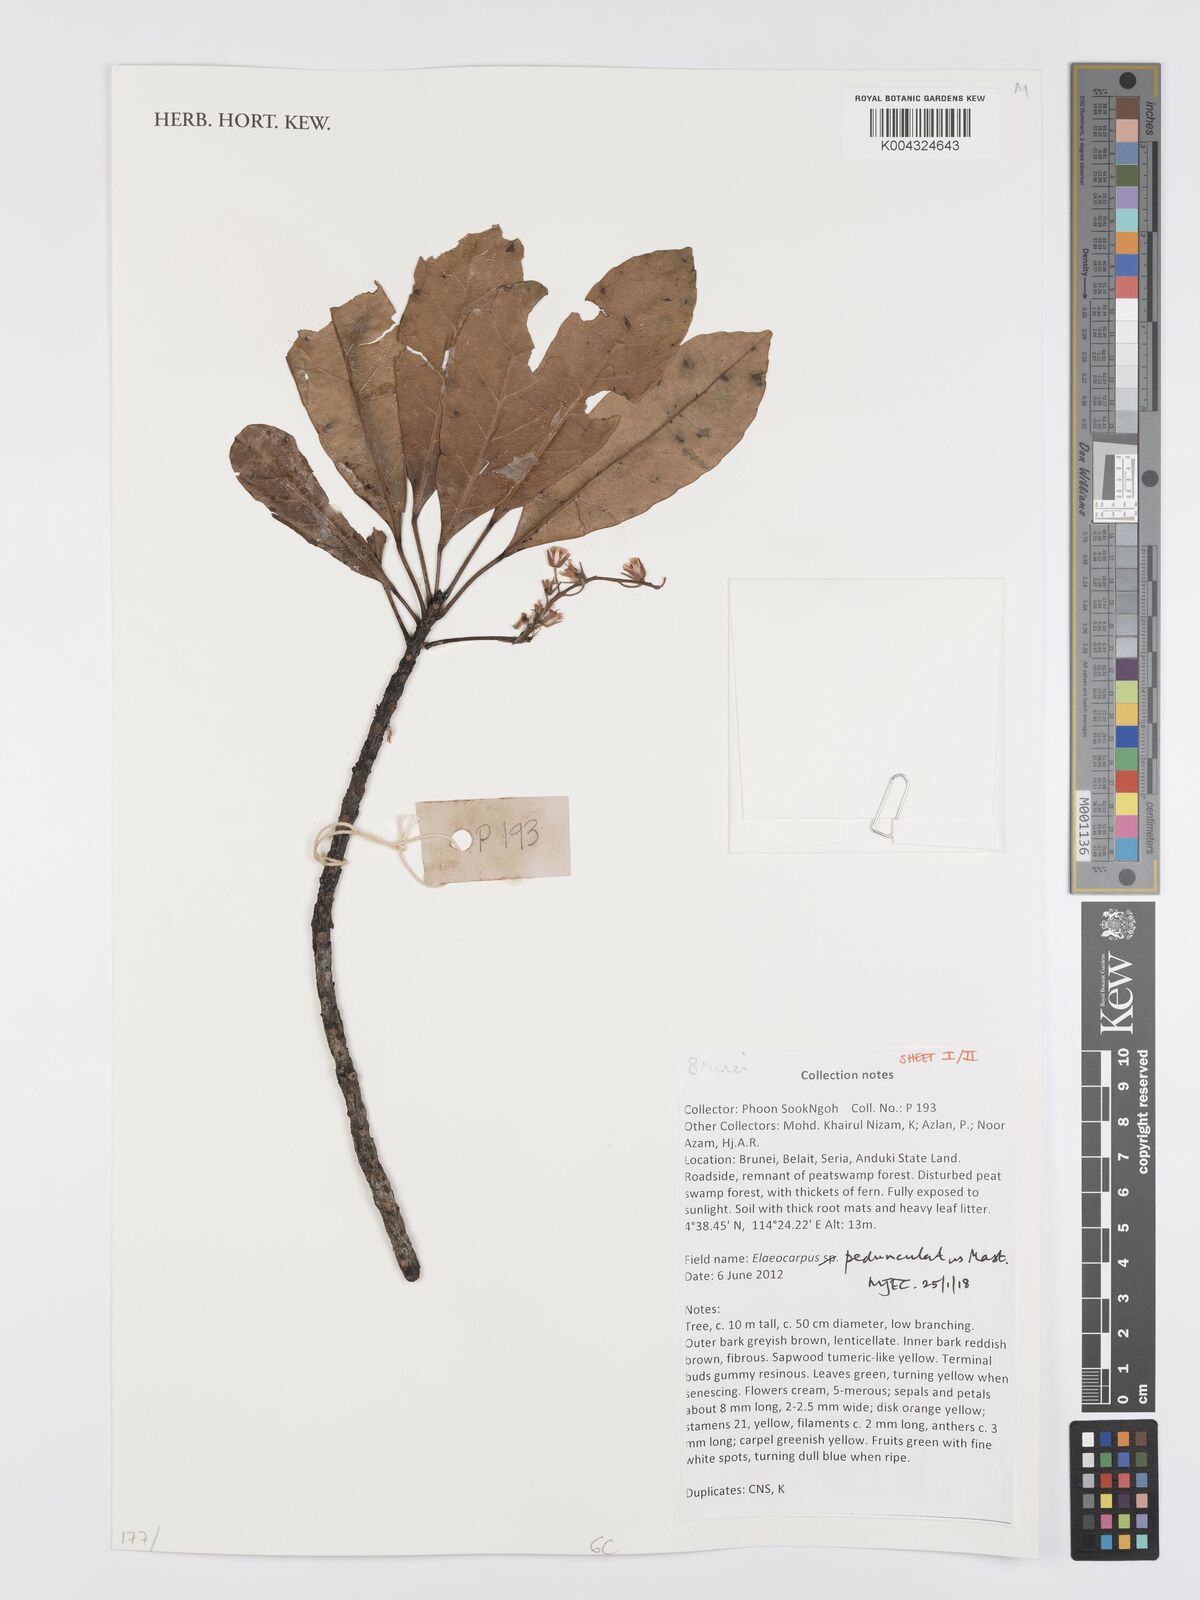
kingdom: Plantae
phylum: Tracheophyta
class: Magnoliopsida
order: Oxalidales
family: Elaeocarpaceae
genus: Elaeocarpus
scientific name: Elaeocarpus pedunculatus
